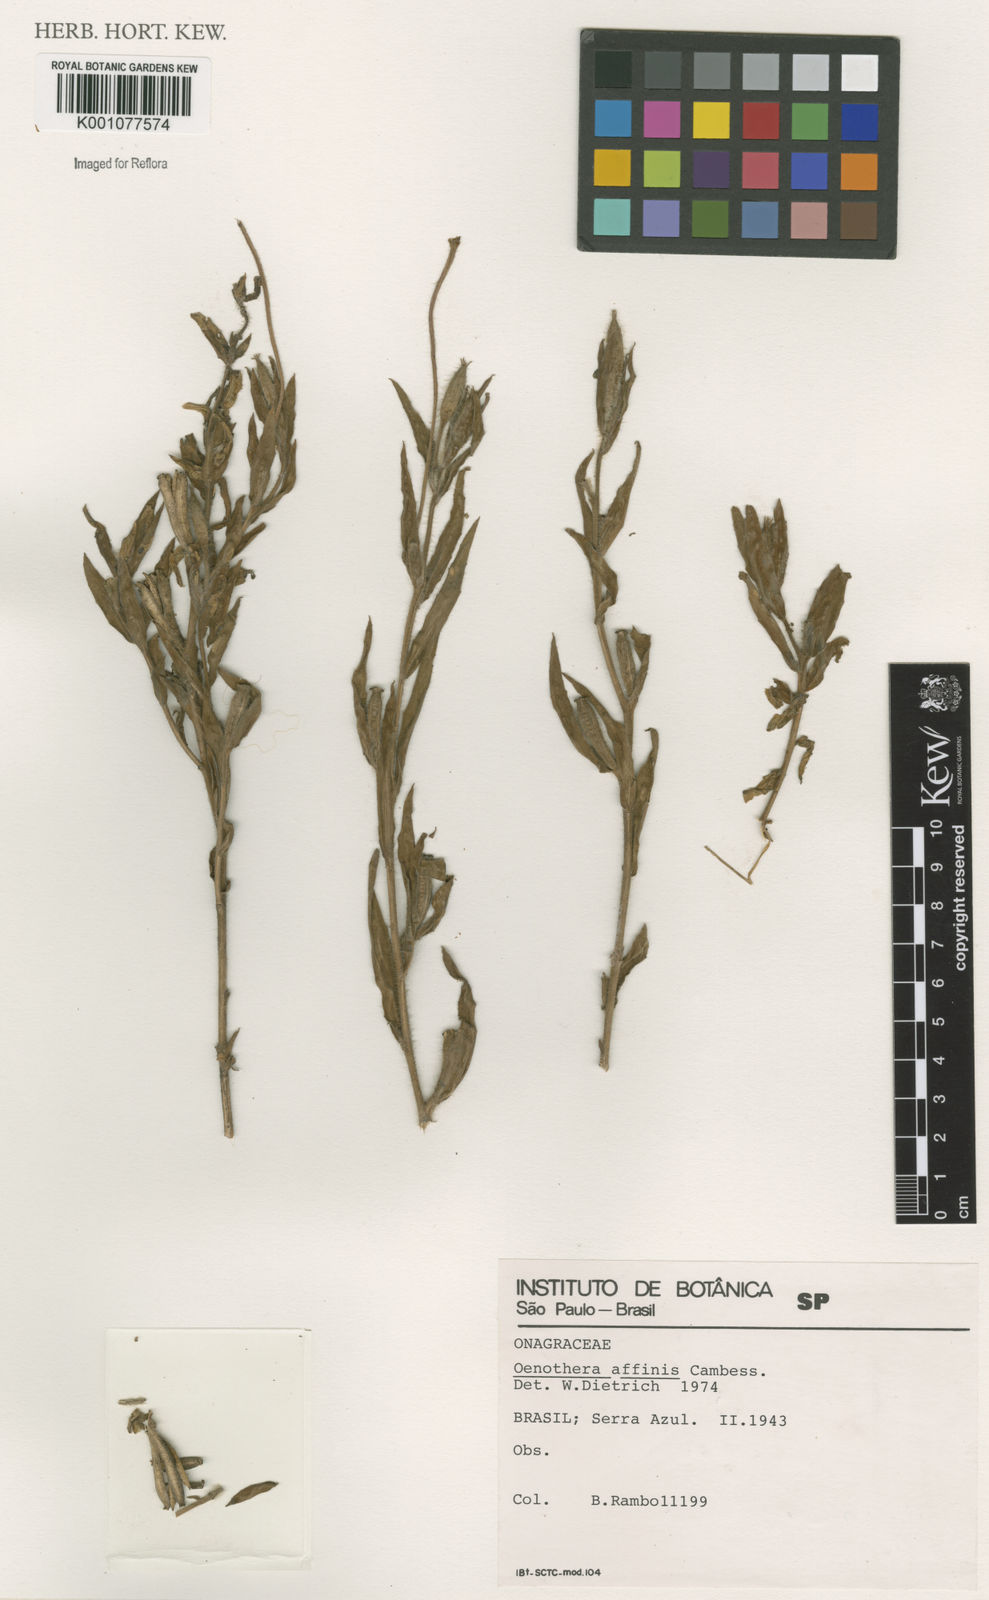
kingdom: Plantae
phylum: Tracheophyta
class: Magnoliopsida
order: Myrtales
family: Onagraceae
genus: Oenothera
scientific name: Oenothera affinis
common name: Longflower evening primrose
